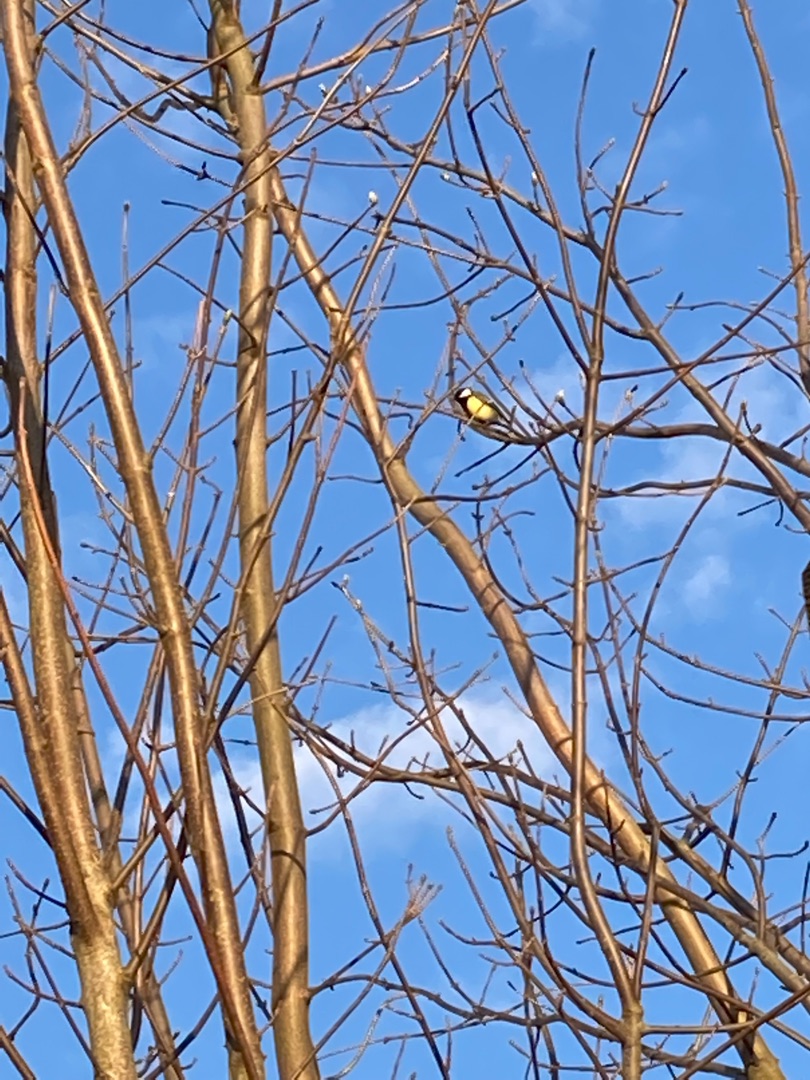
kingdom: Animalia
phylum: Chordata
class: Aves
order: Passeriformes
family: Paridae
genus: Parus
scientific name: Parus major
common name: Musvit
